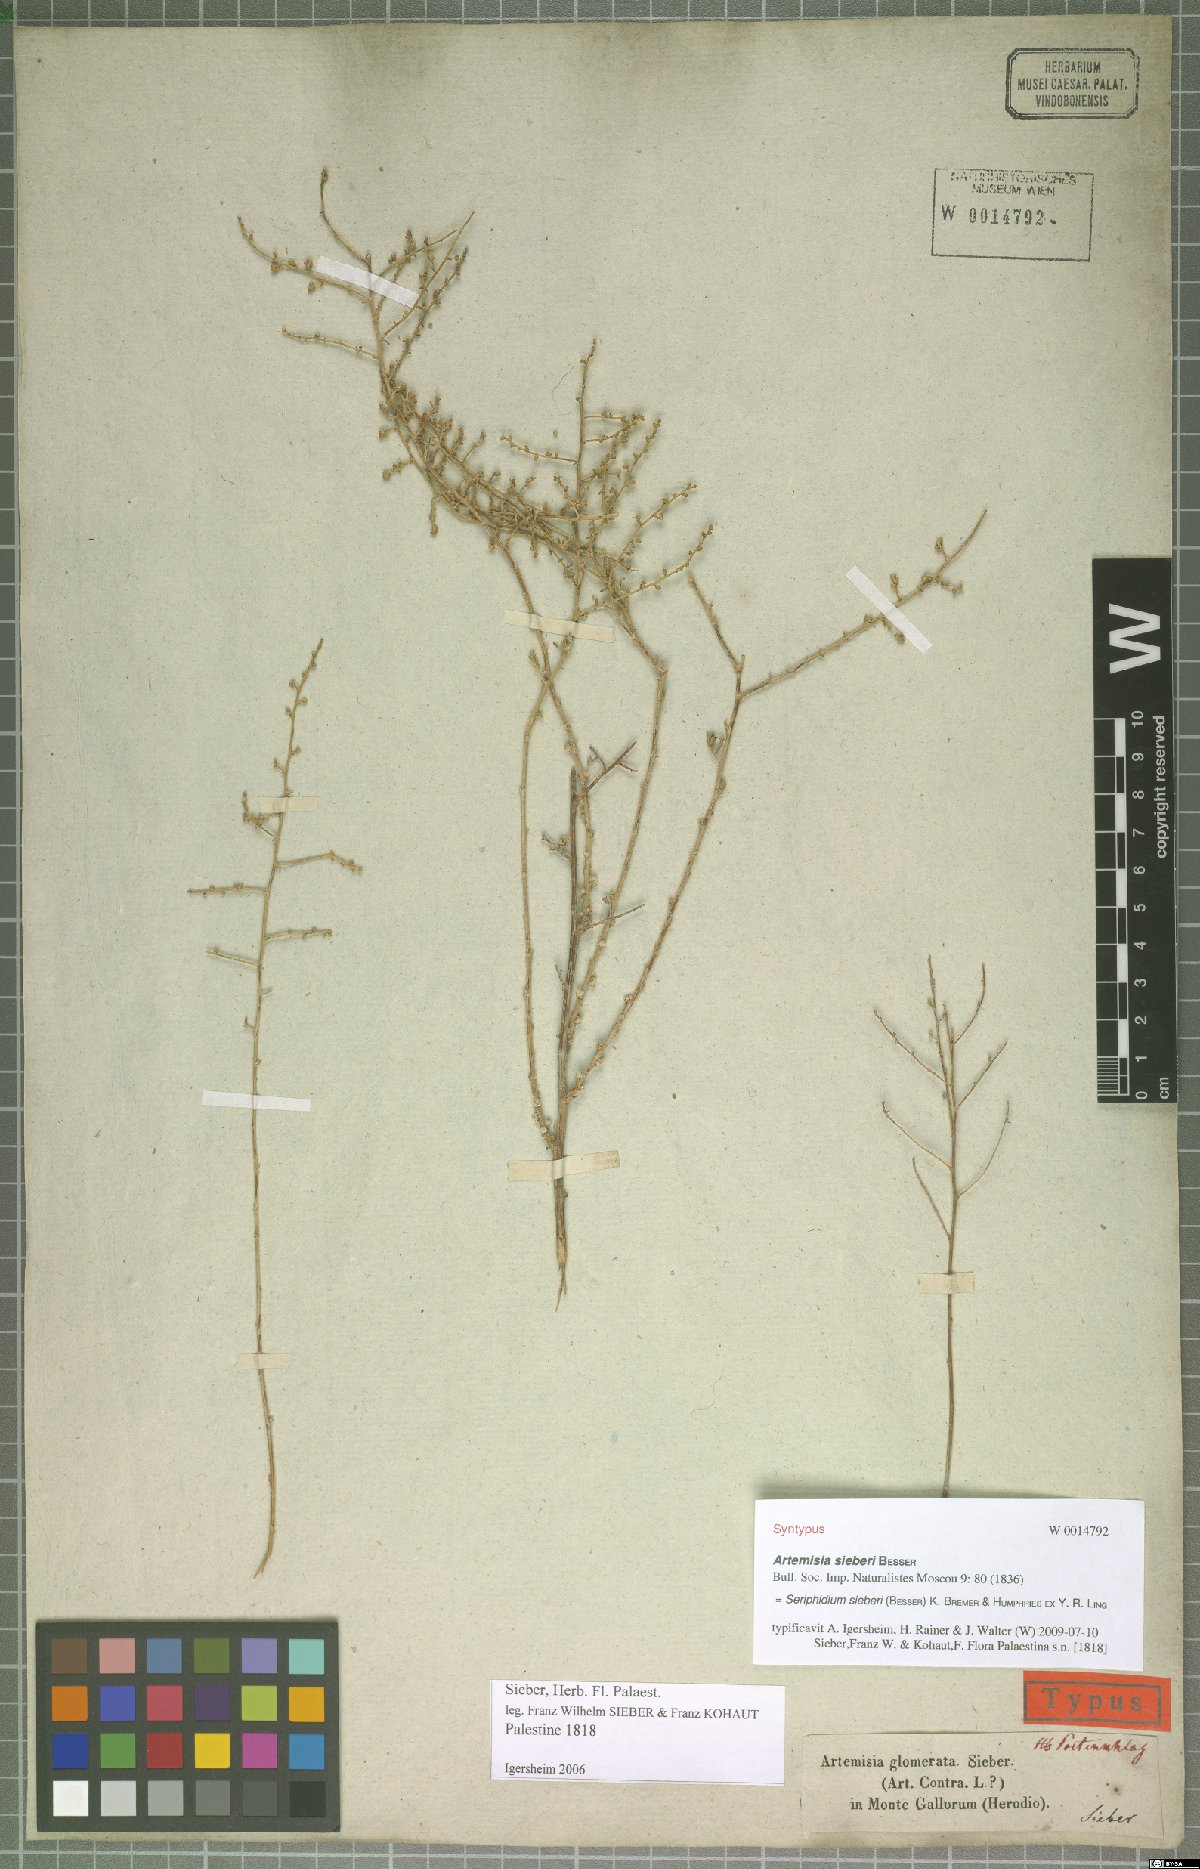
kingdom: Plantae
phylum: Tracheophyta
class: Magnoliopsida
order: Asterales
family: Asteraceae
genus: Artemisia
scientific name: Artemisia sieberi
